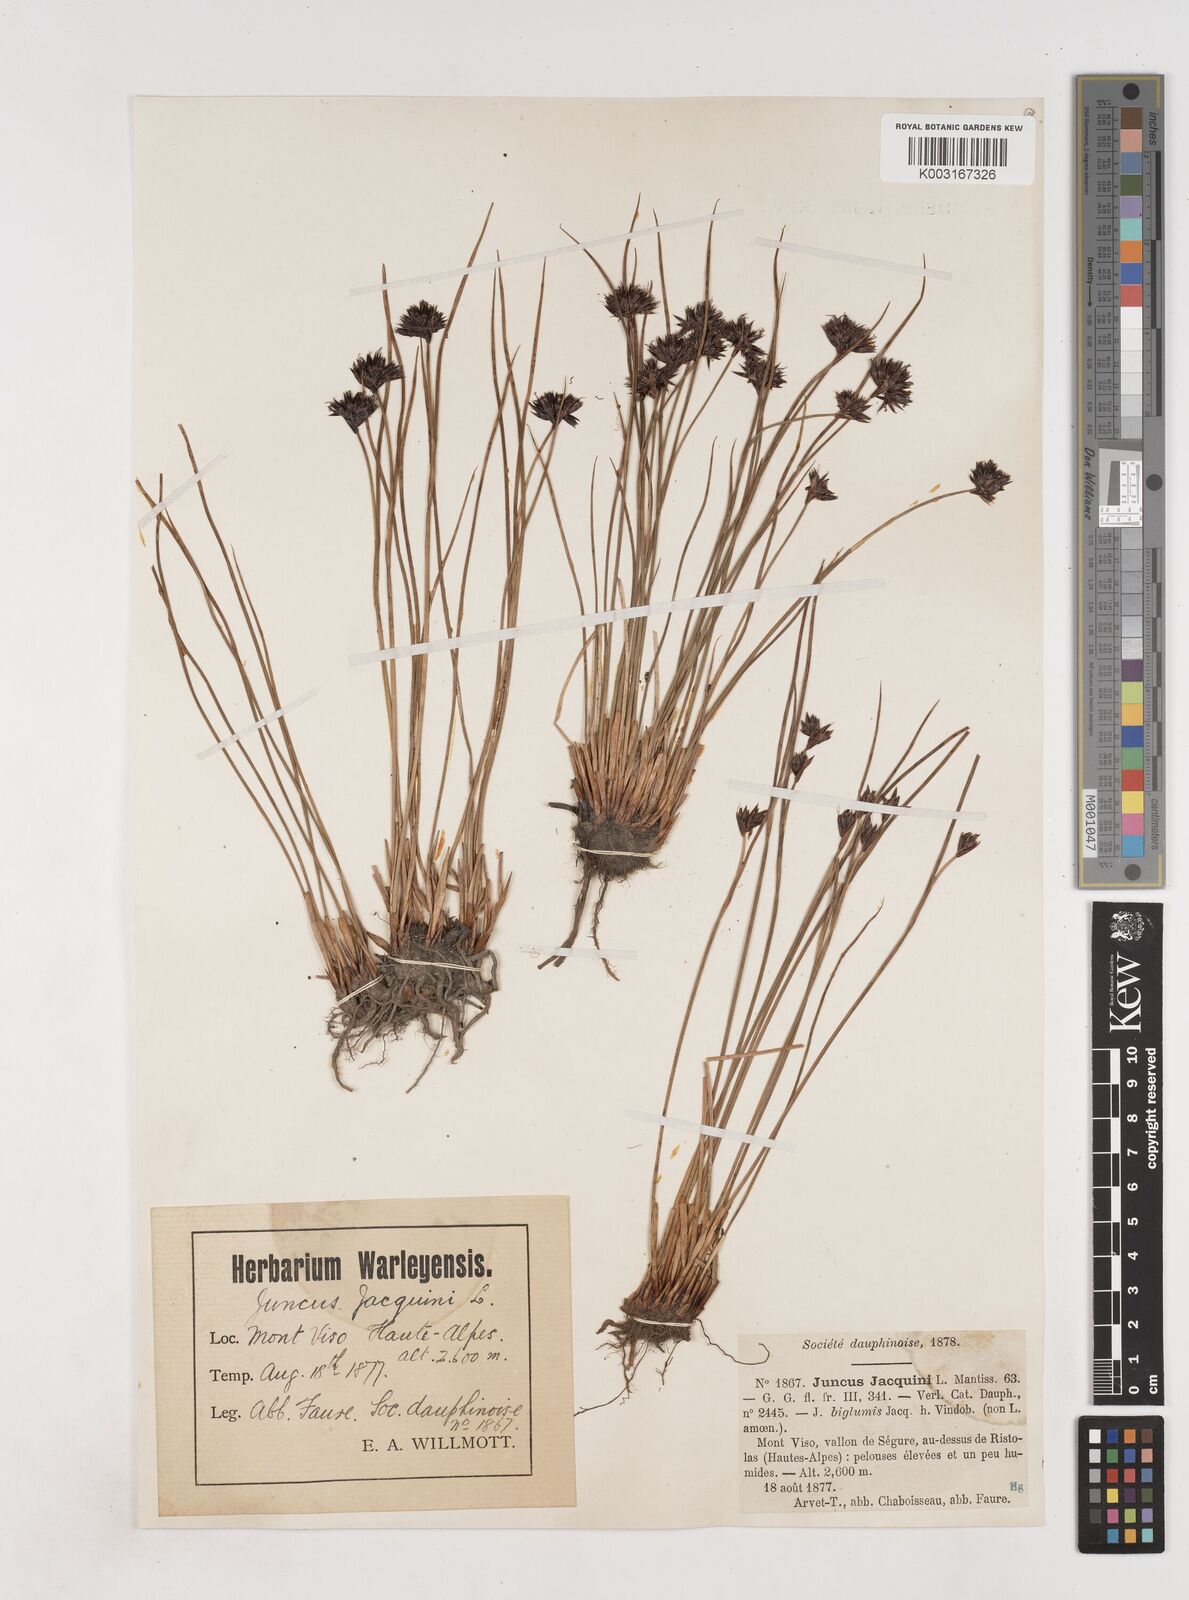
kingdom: Plantae
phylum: Tracheophyta
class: Liliopsida
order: Poales
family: Juncaceae
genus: Juncus
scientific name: Juncus jacquinii
